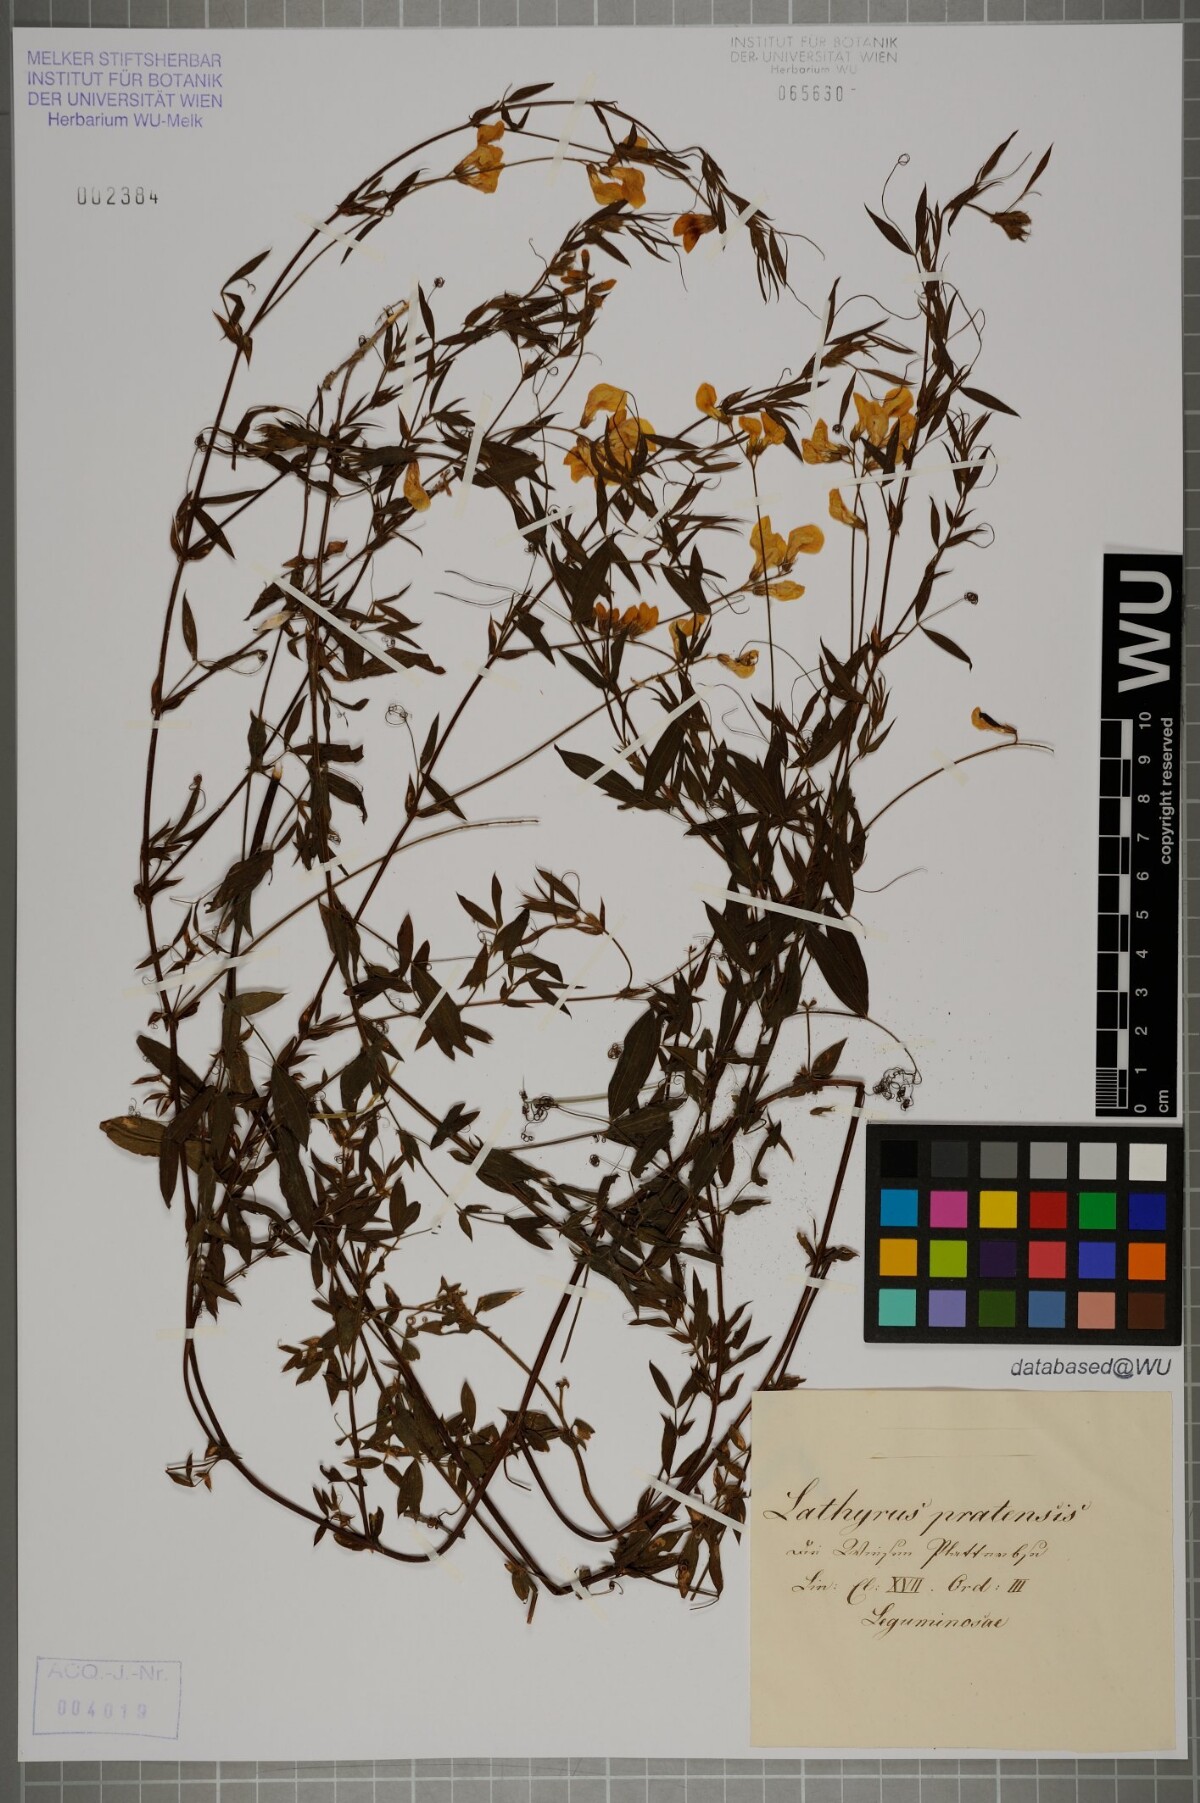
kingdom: Plantae
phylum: Tracheophyta
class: Magnoliopsida
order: Fabales
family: Fabaceae
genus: Lathyrus
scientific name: Lathyrus pratensis
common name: Meadow vetchling
